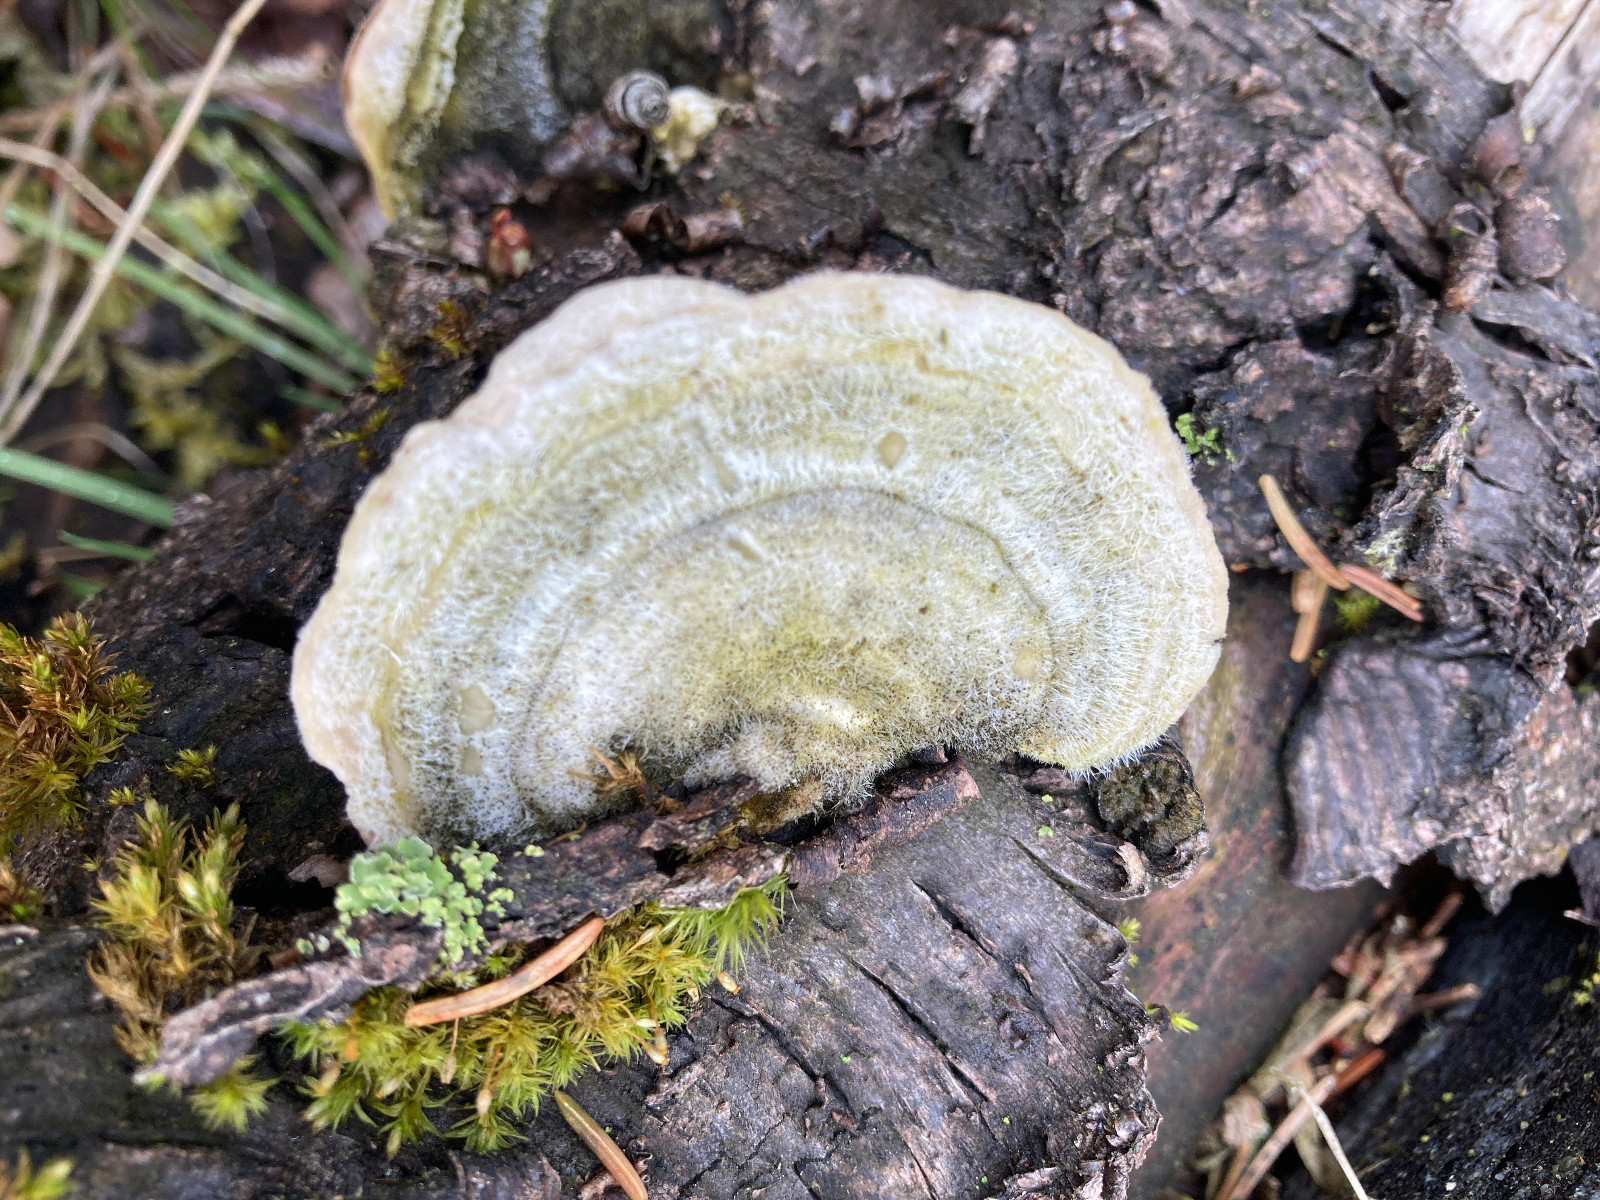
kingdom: Fungi
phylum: Basidiomycota
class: Agaricomycetes
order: Polyporales
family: Polyporaceae
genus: Trametes
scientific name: Trametes hirsuta
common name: håret læderporesvamp
